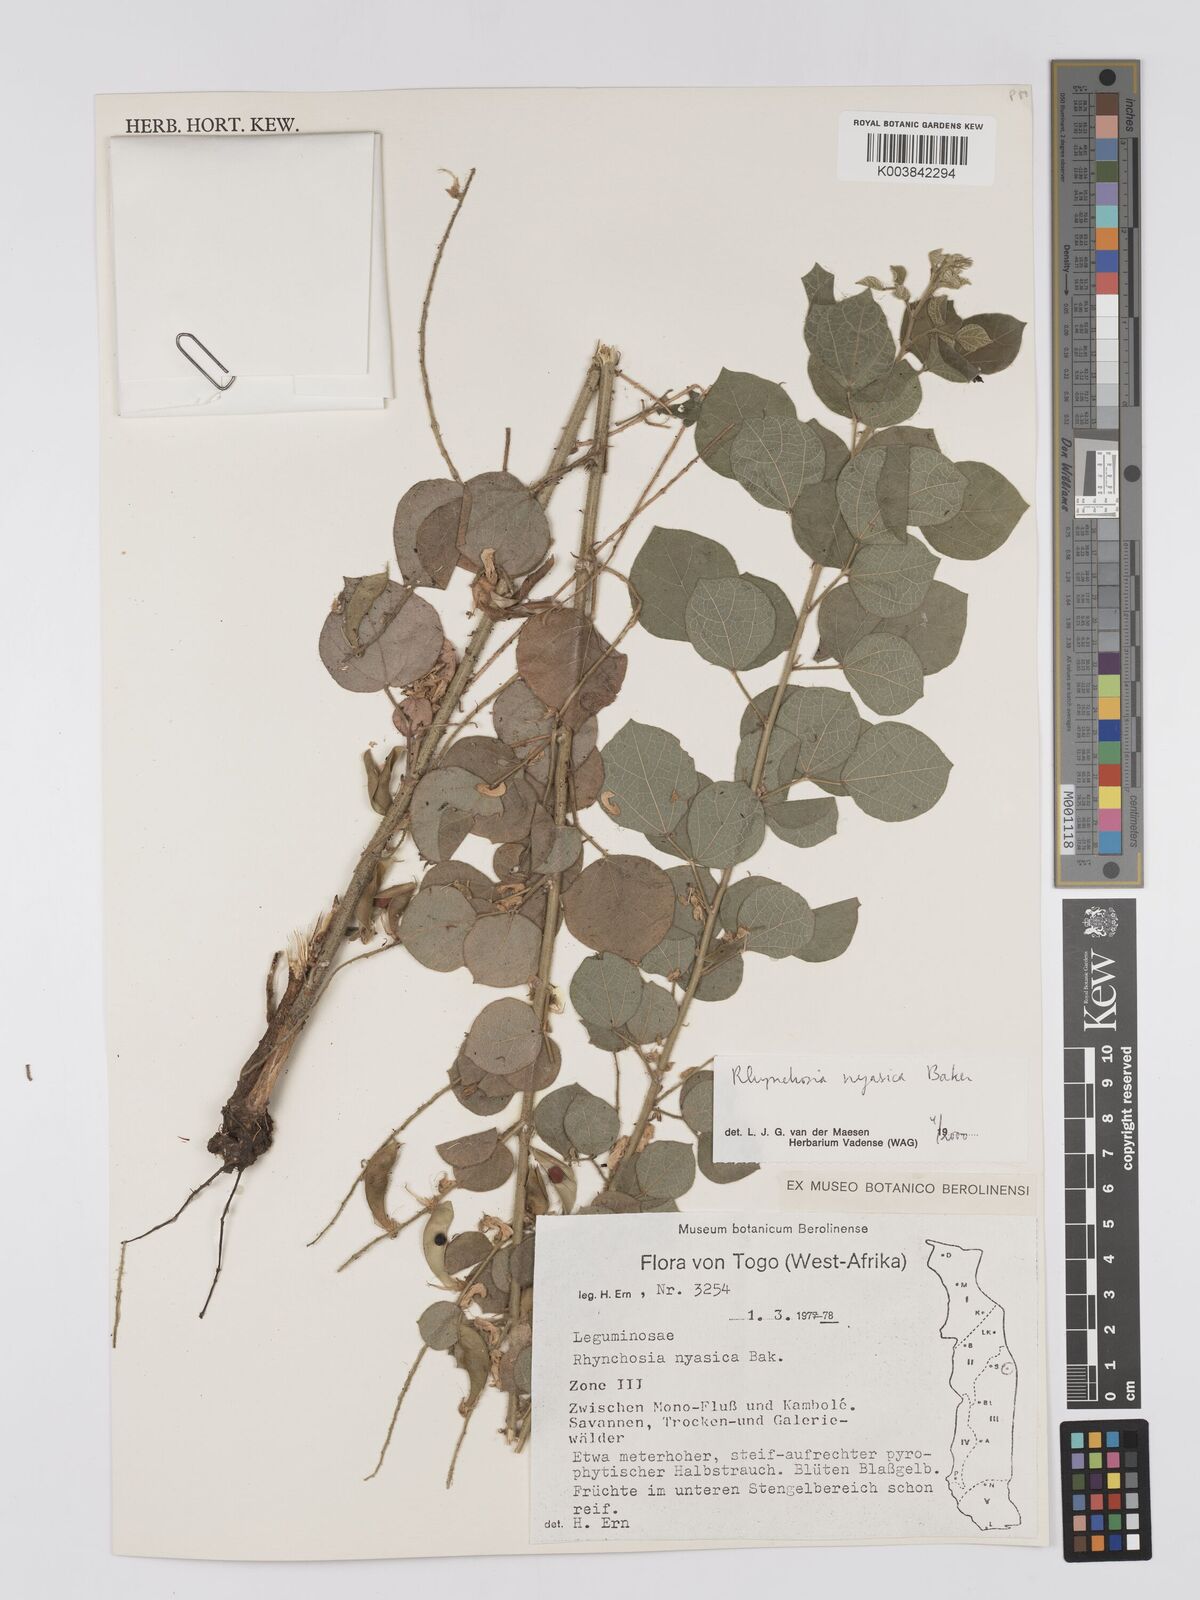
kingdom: Plantae
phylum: Tracheophyta
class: Magnoliopsida
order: Fabales
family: Fabaceae
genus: Rhynchosia
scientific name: Rhynchosia nyasica
